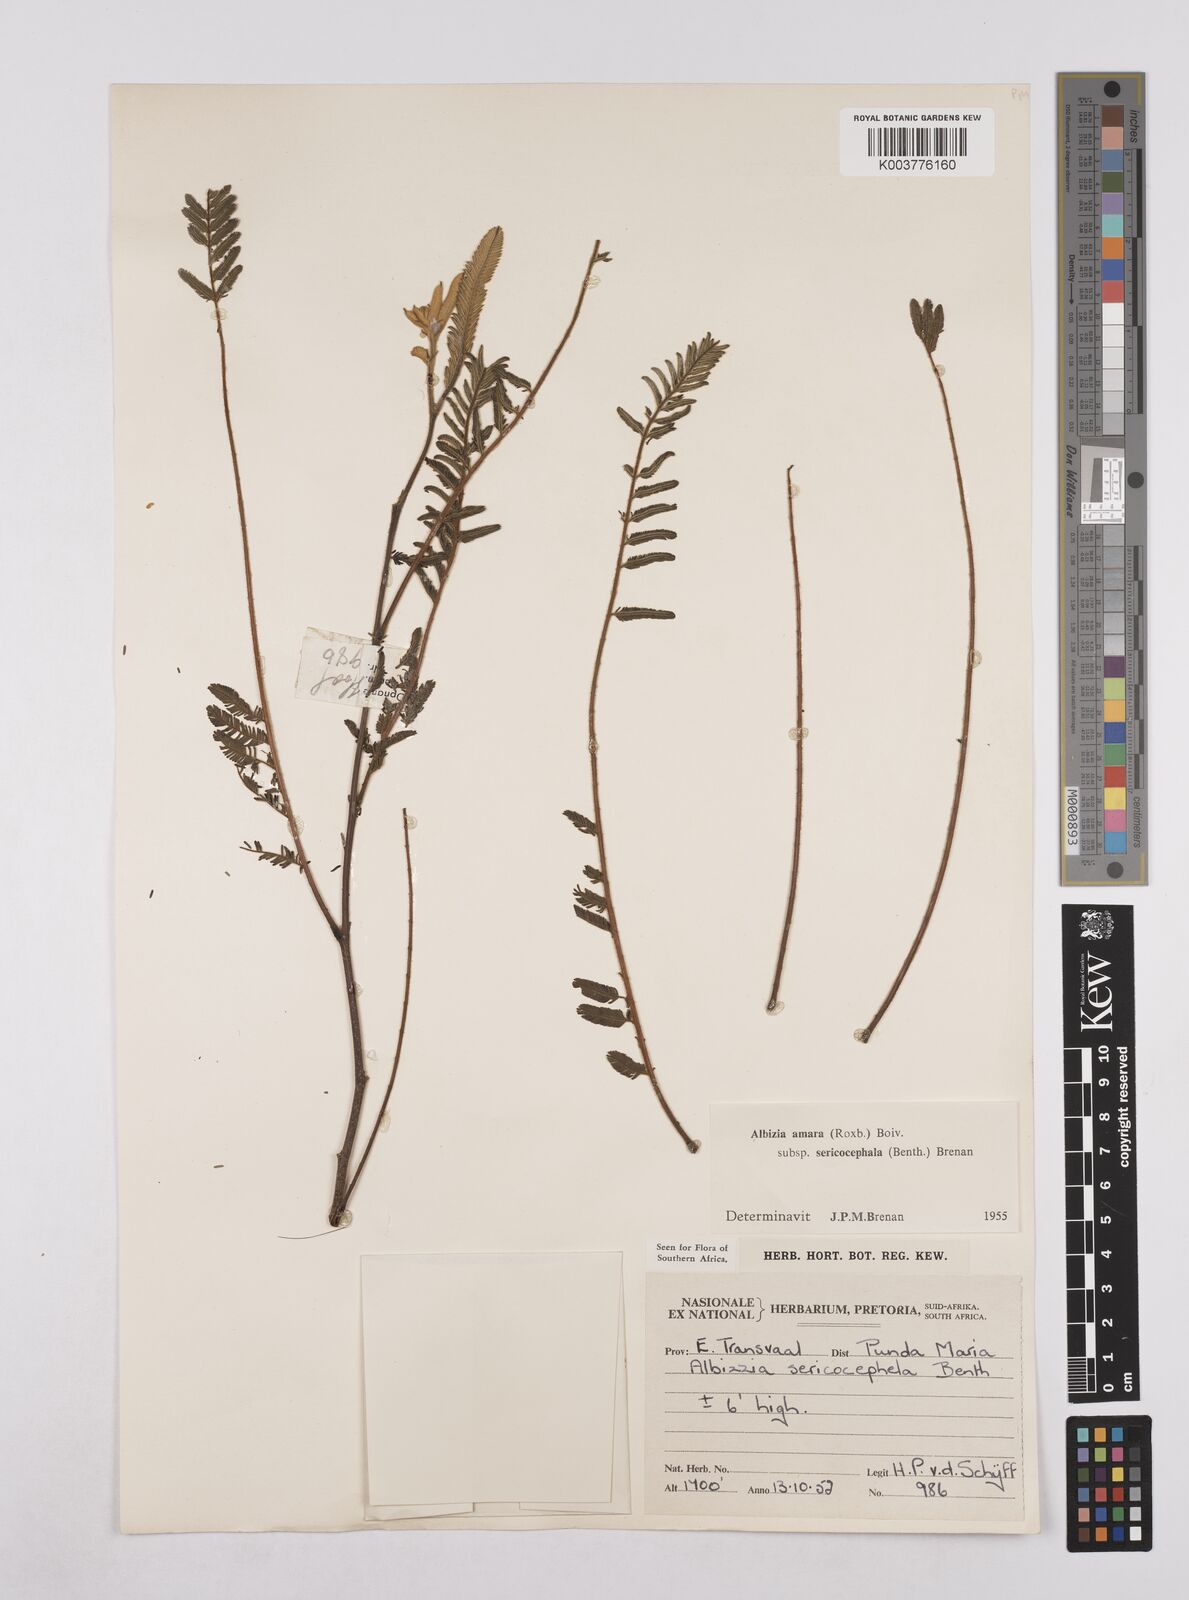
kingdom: Plantae
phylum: Tracheophyta
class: Magnoliopsida
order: Fabales
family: Fabaceae
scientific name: Fabaceae
